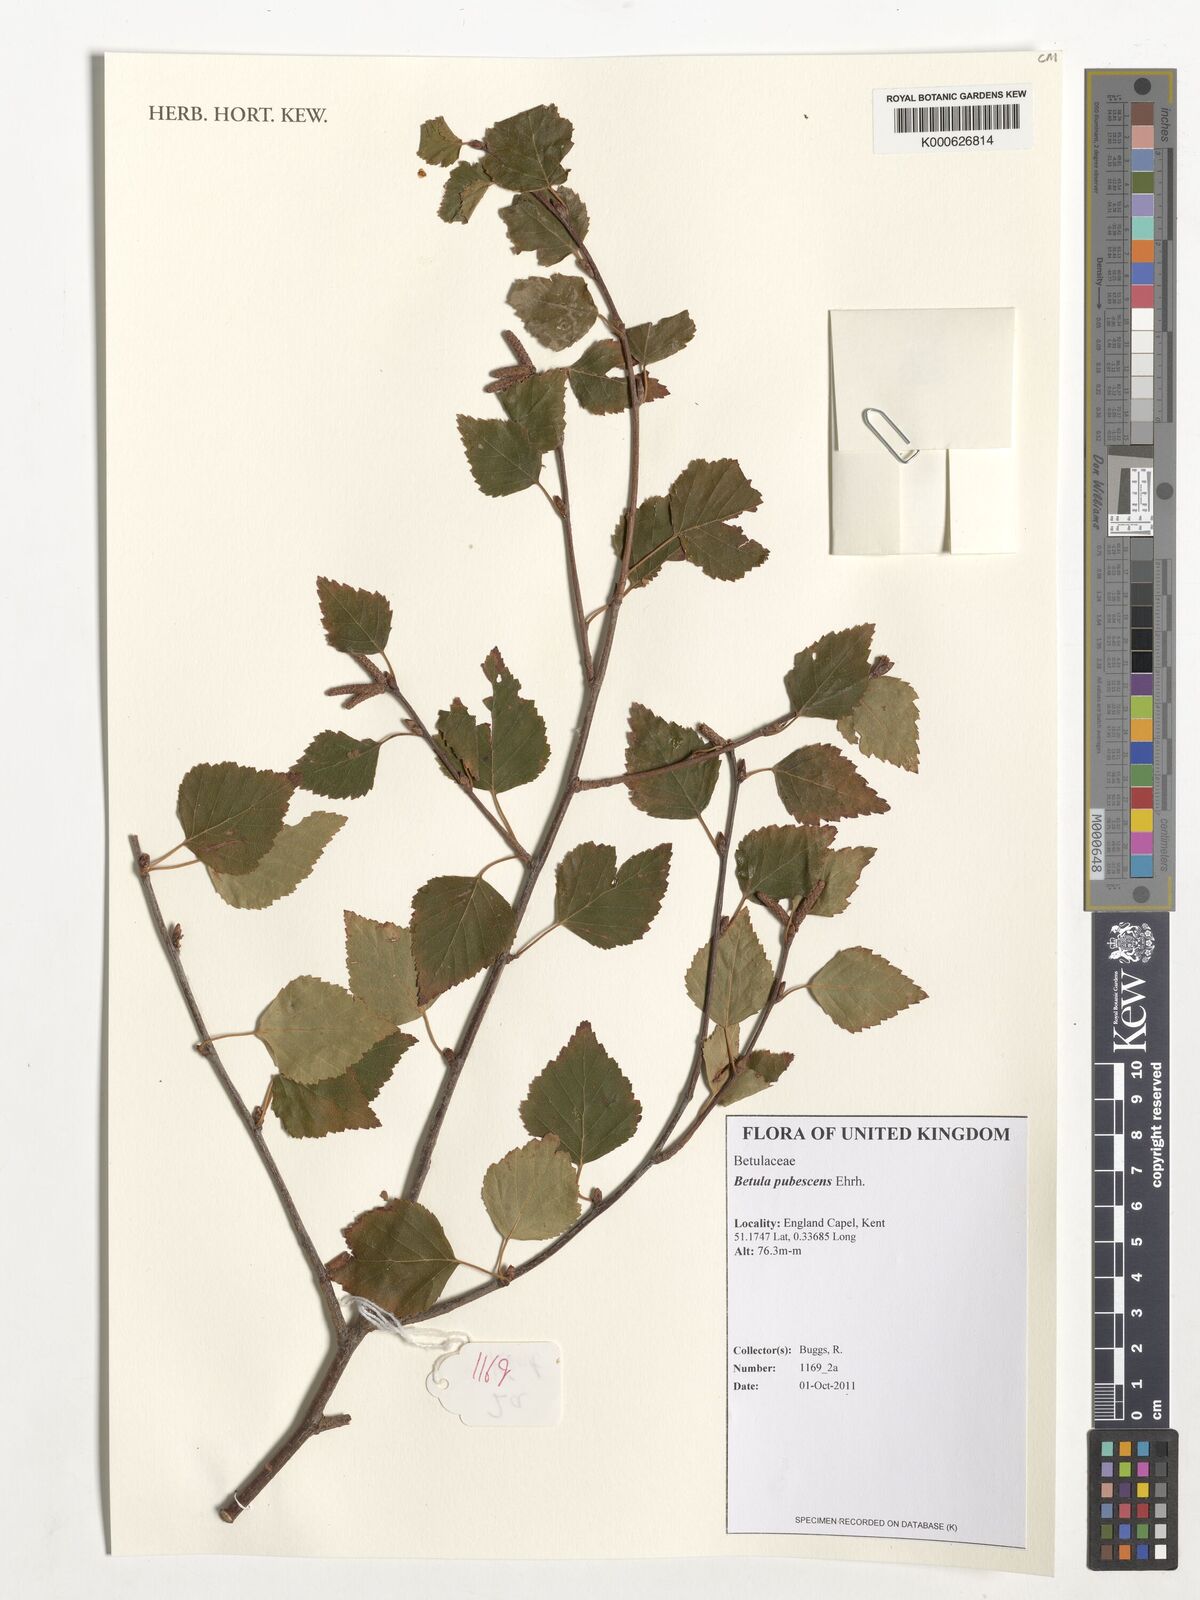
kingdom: Plantae
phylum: Tracheophyta
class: Magnoliopsida
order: Fagales
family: Betulaceae
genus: Betula
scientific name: Betula pubescens
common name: Downy birch
